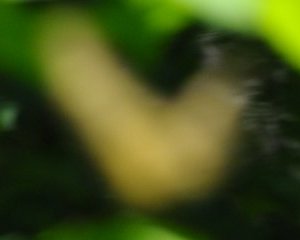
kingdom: Animalia
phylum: Arthropoda
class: Insecta
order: Lepidoptera
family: Papilionidae
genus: Pterourus
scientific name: Pterourus canadensis
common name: Canadian Tiger Swallowtail
